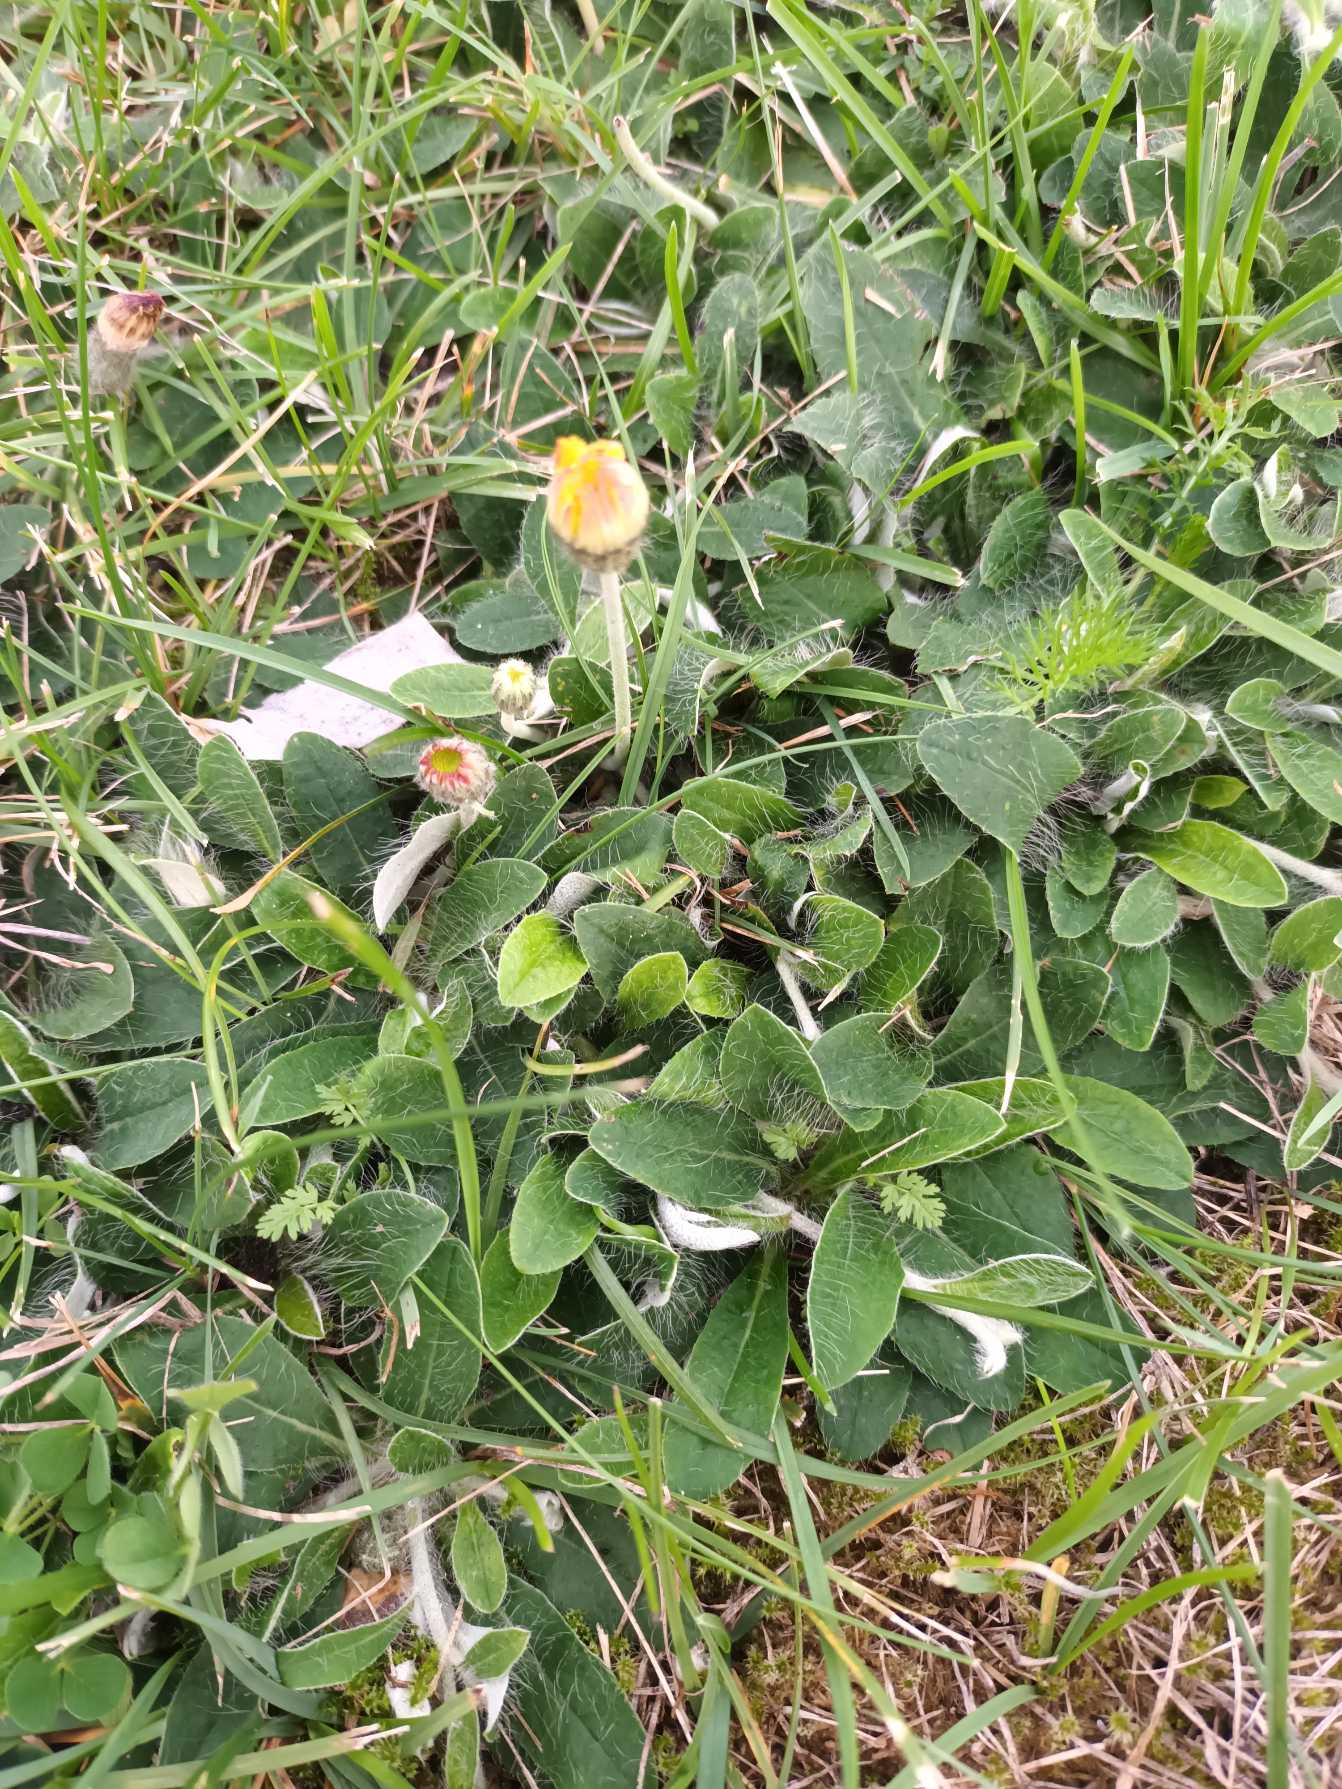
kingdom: Plantae
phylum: Tracheophyta
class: Magnoliopsida
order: Asterales
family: Asteraceae
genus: Pilosella
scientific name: Pilosella officinarum
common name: Håret høgeurt
